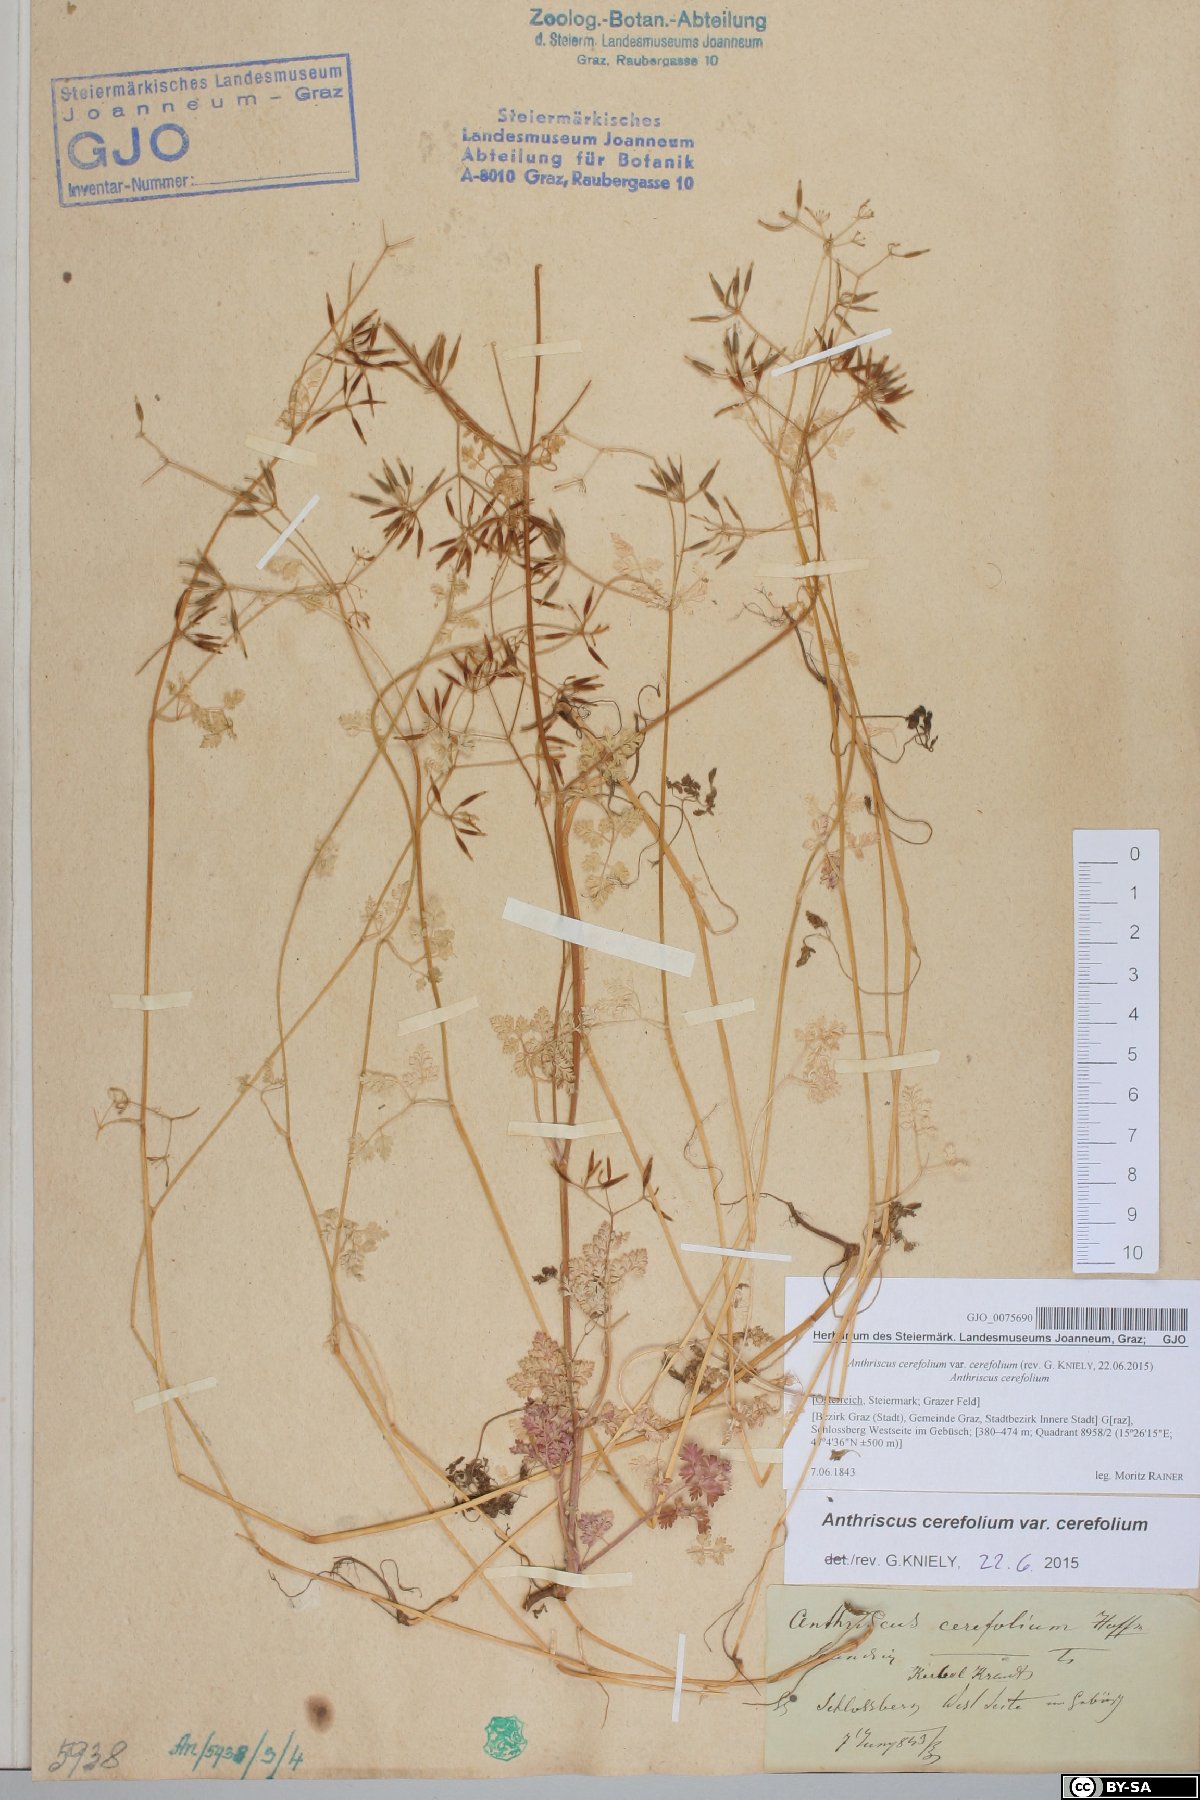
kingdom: Plantae
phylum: Tracheophyta
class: Magnoliopsida
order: Apiales
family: Apiaceae
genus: Anthriscus
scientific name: Anthriscus cerefolium
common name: Garden chervil
